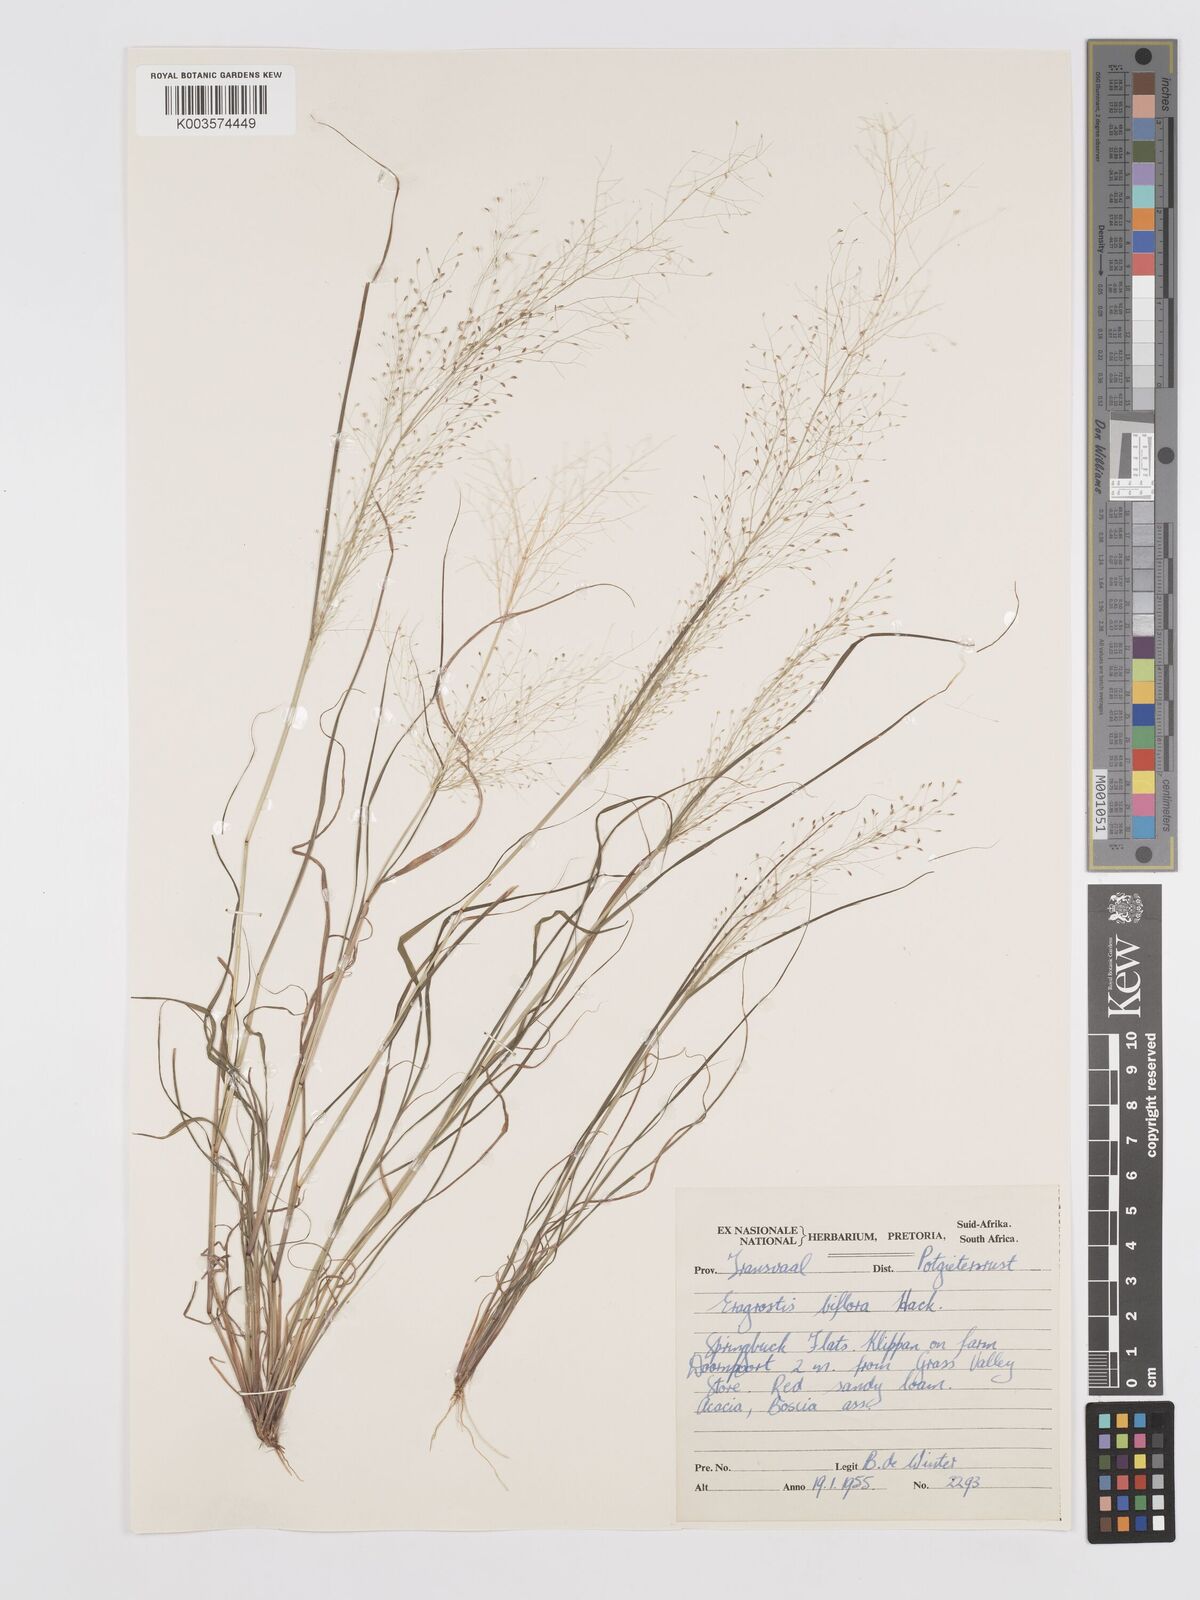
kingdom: Plantae
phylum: Tracheophyta
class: Liliopsida
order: Poales
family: Poaceae
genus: Eragrostis
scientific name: Eragrostis biflora
